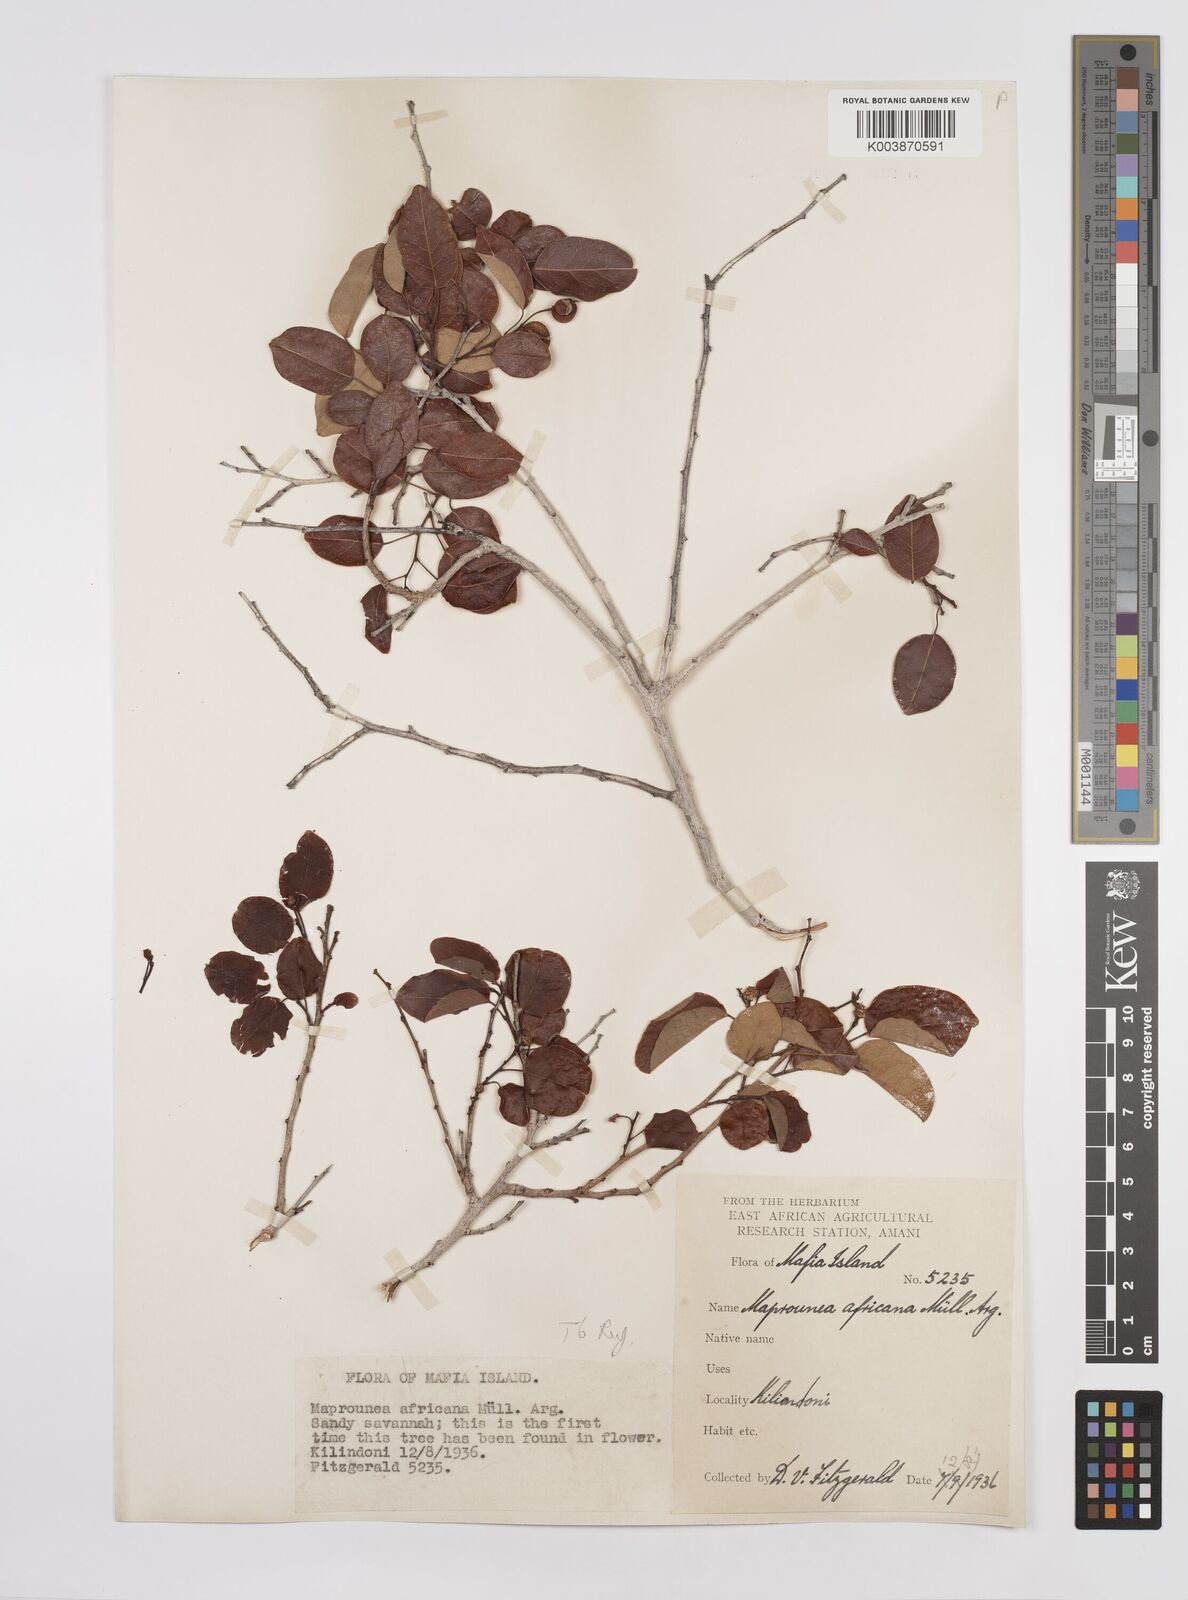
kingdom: Plantae
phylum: Tracheophyta
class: Magnoliopsida
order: Malpighiales
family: Euphorbiaceae
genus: Maprounea
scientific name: Maprounea africana
